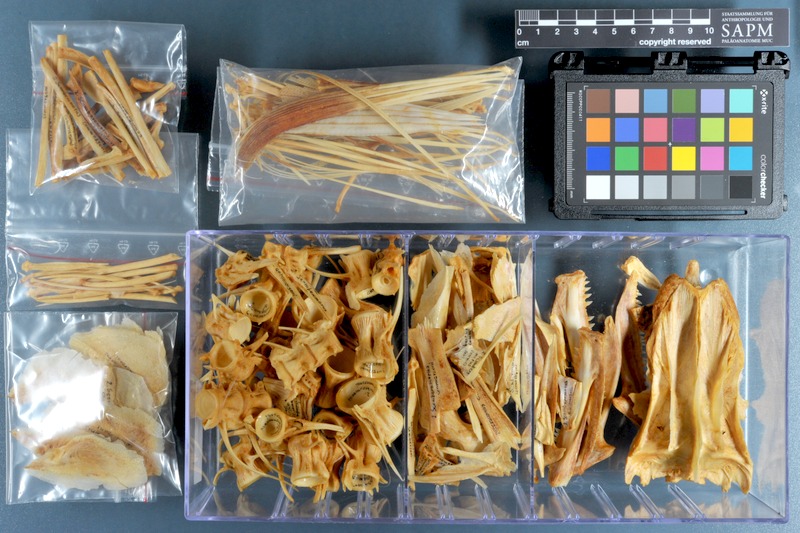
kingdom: Animalia
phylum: Chordata
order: Perciformes
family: Scombridae
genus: Scomberomorus
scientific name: Scomberomorus commerson
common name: Narrow-barred spanish mackerel
